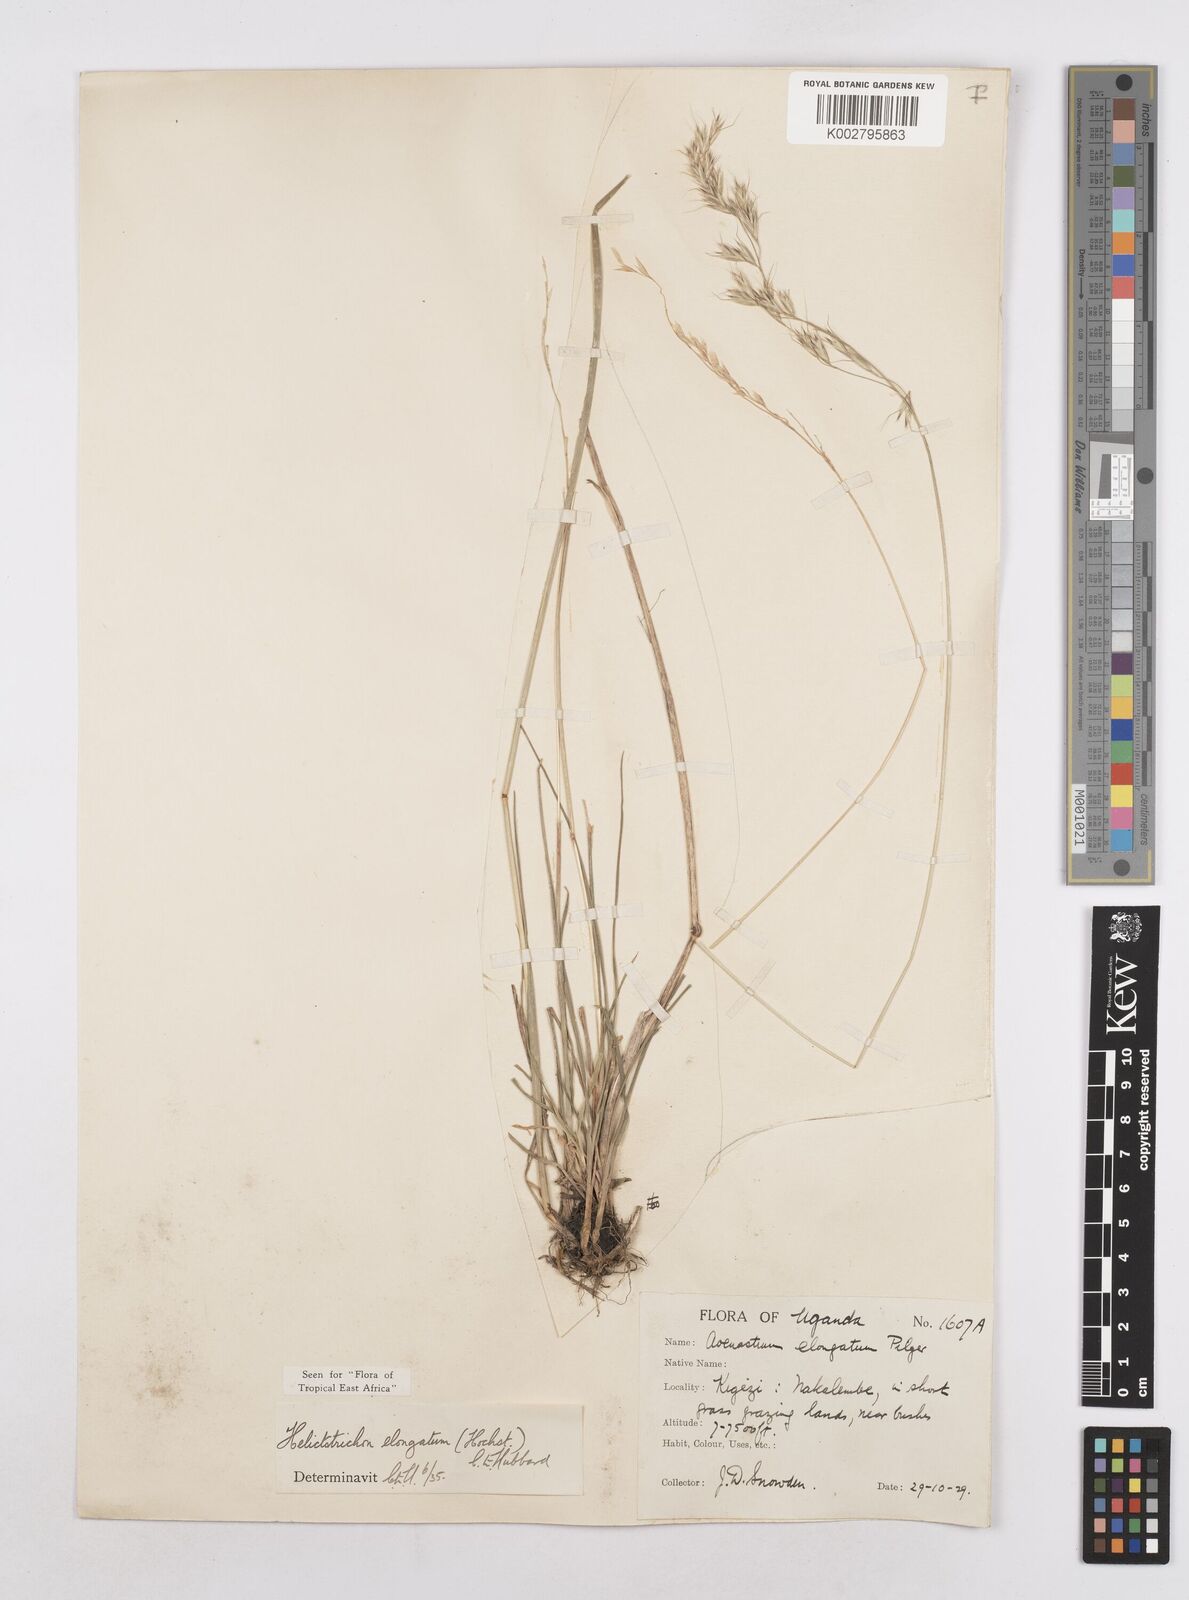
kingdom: Plantae
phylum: Tracheophyta
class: Liliopsida
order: Poales
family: Poaceae
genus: Trisetopsis
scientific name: Trisetopsis elongata
